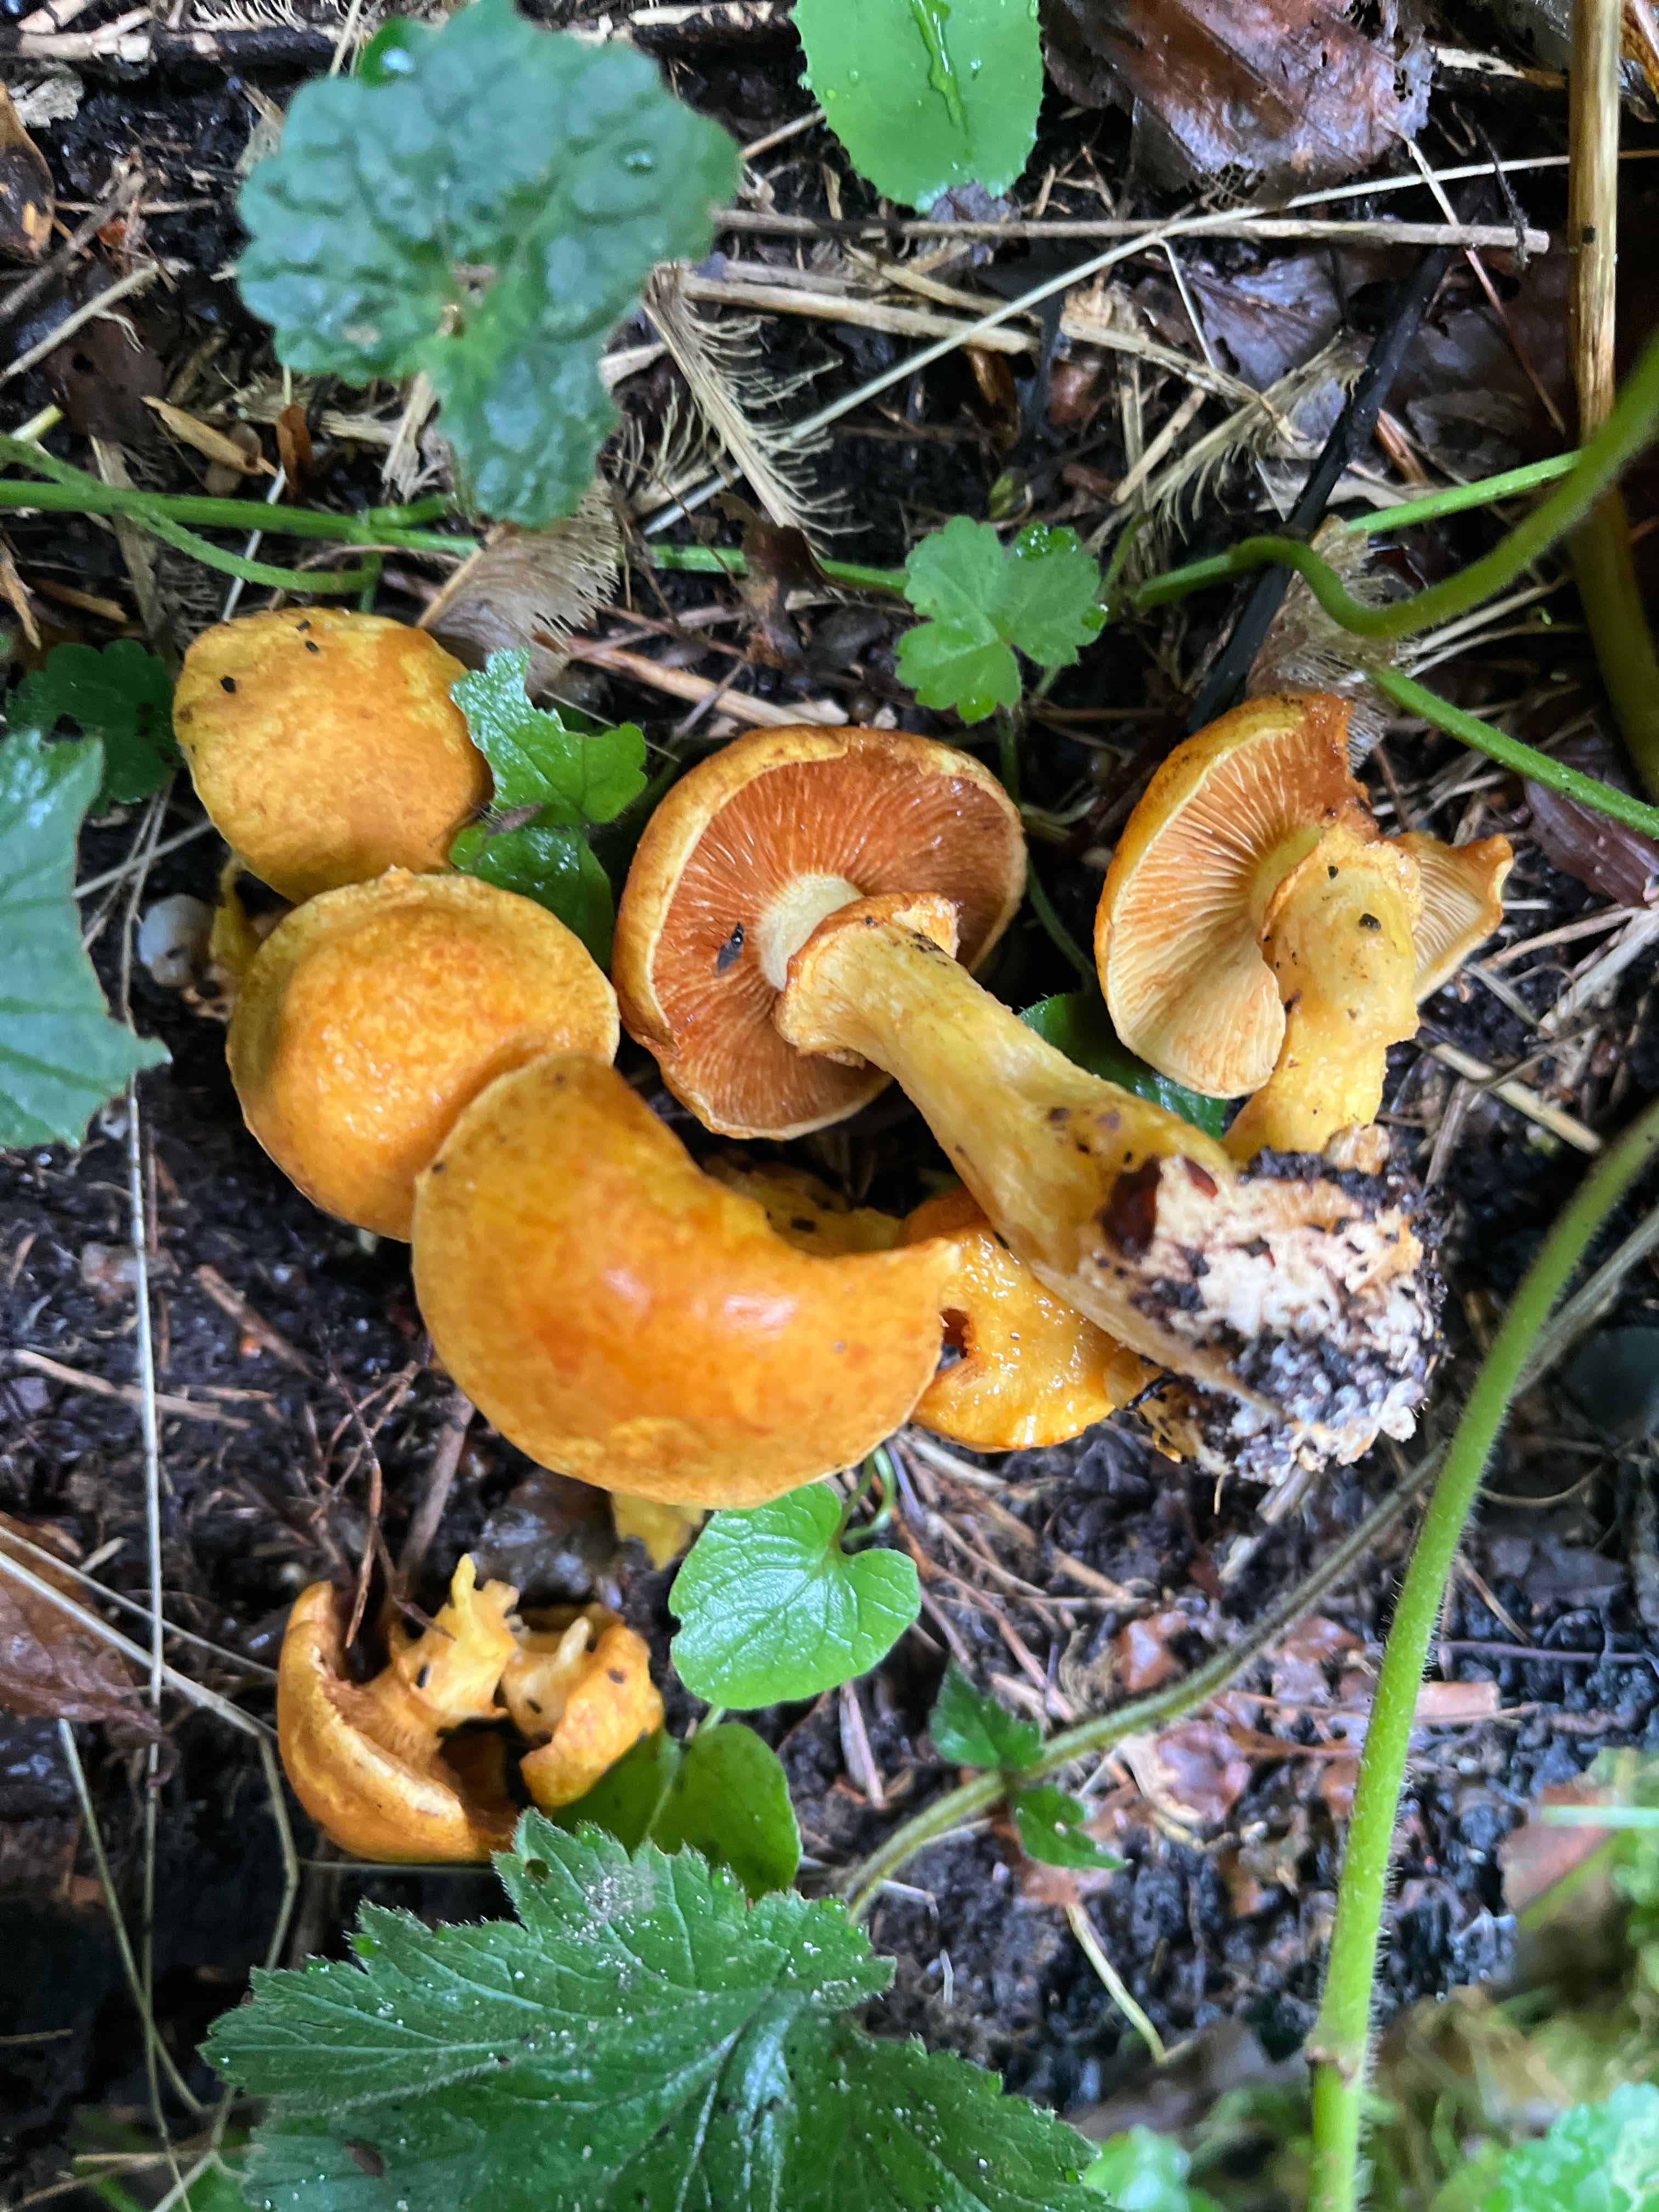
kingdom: Fungi
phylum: Basidiomycota
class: Agaricomycetes
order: Agaricales
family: Hymenogastraceae
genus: Gymnopilus
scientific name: Gymnopilus spectabilis
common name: fibret flammehat
